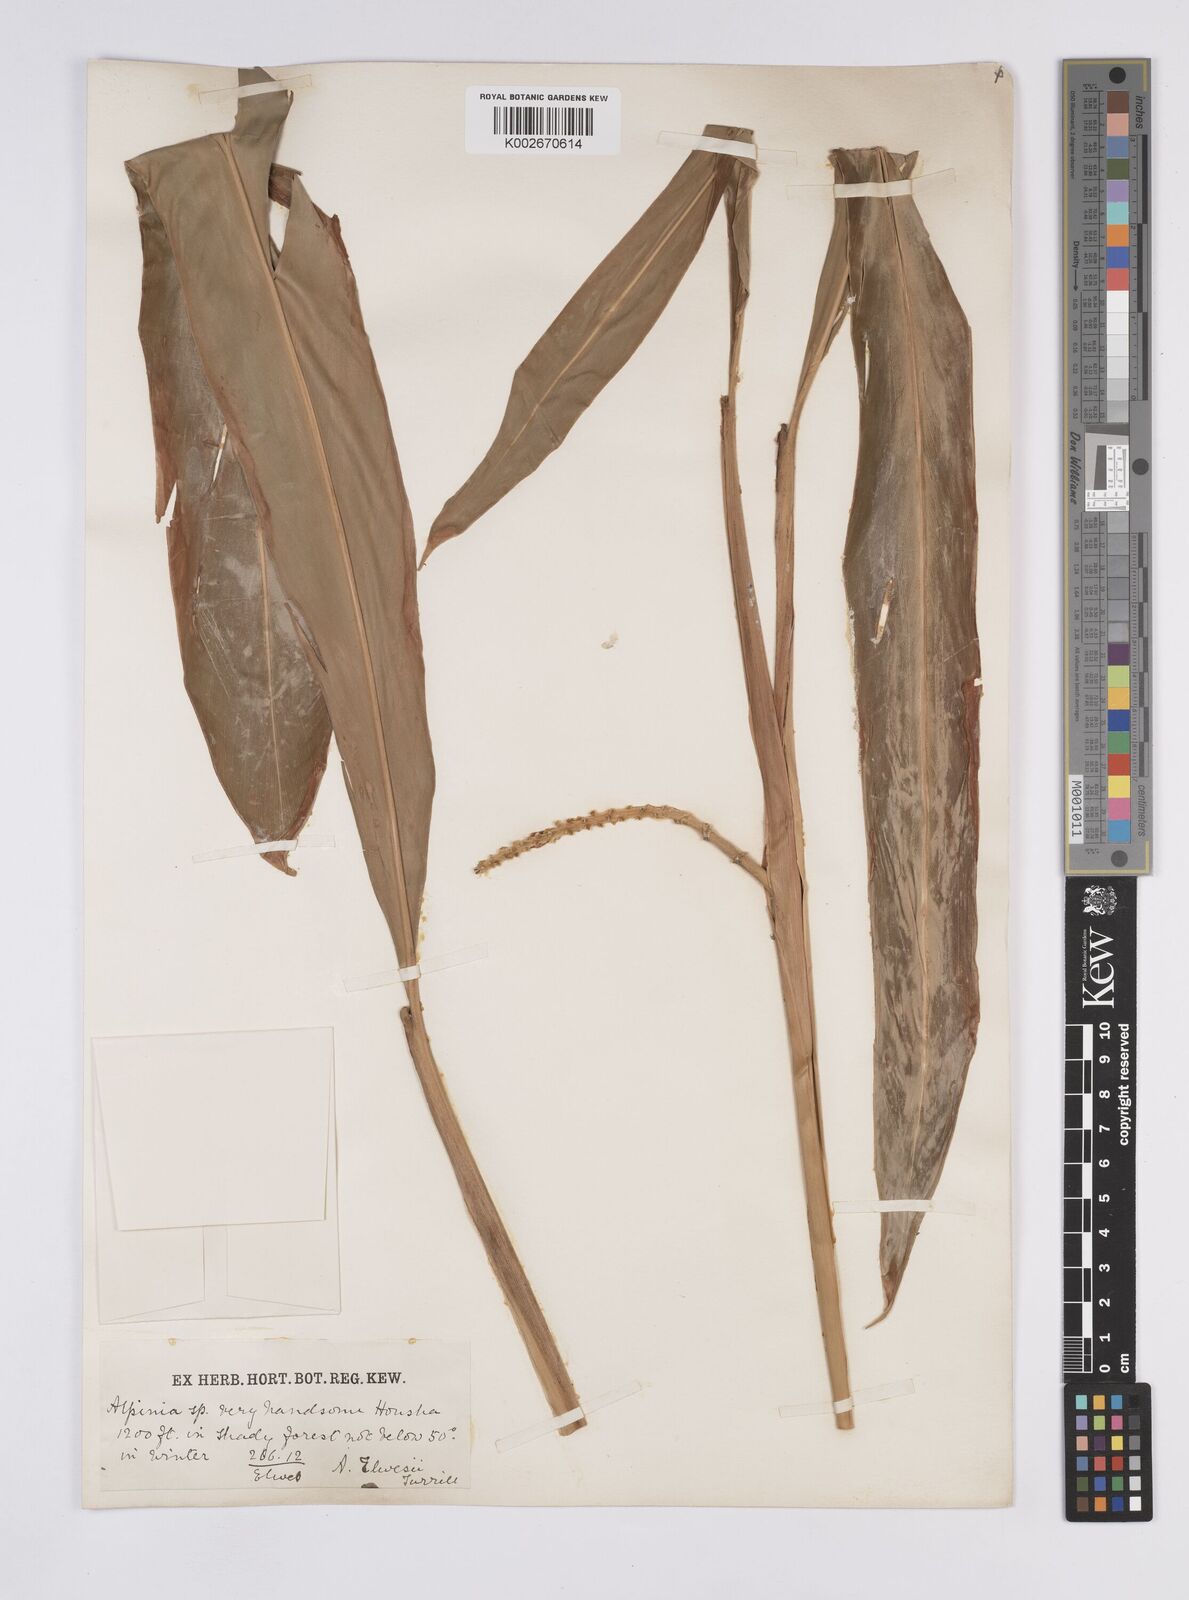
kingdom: Plantae
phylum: Tracheophyta
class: Liliopsida
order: Zingiberales
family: Zingiberaceae
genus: Alpinia
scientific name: Alpinia kawakamii
